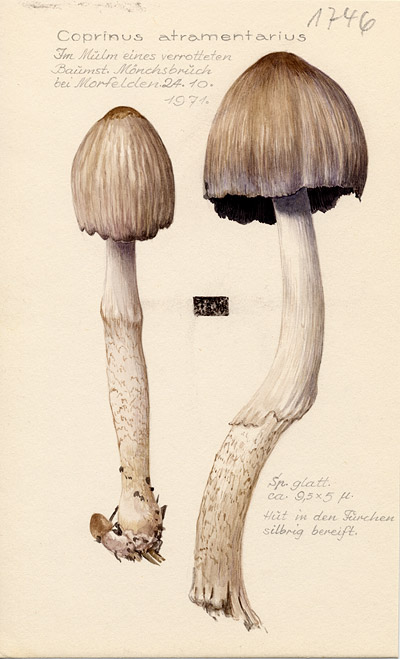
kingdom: Fungi
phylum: Basidiomycota
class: Agaricomycetes
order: Agaricales
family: Psathyrellaceae
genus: Coprinopsis
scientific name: Coprinopsis atramentaria
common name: Common ink-cap
